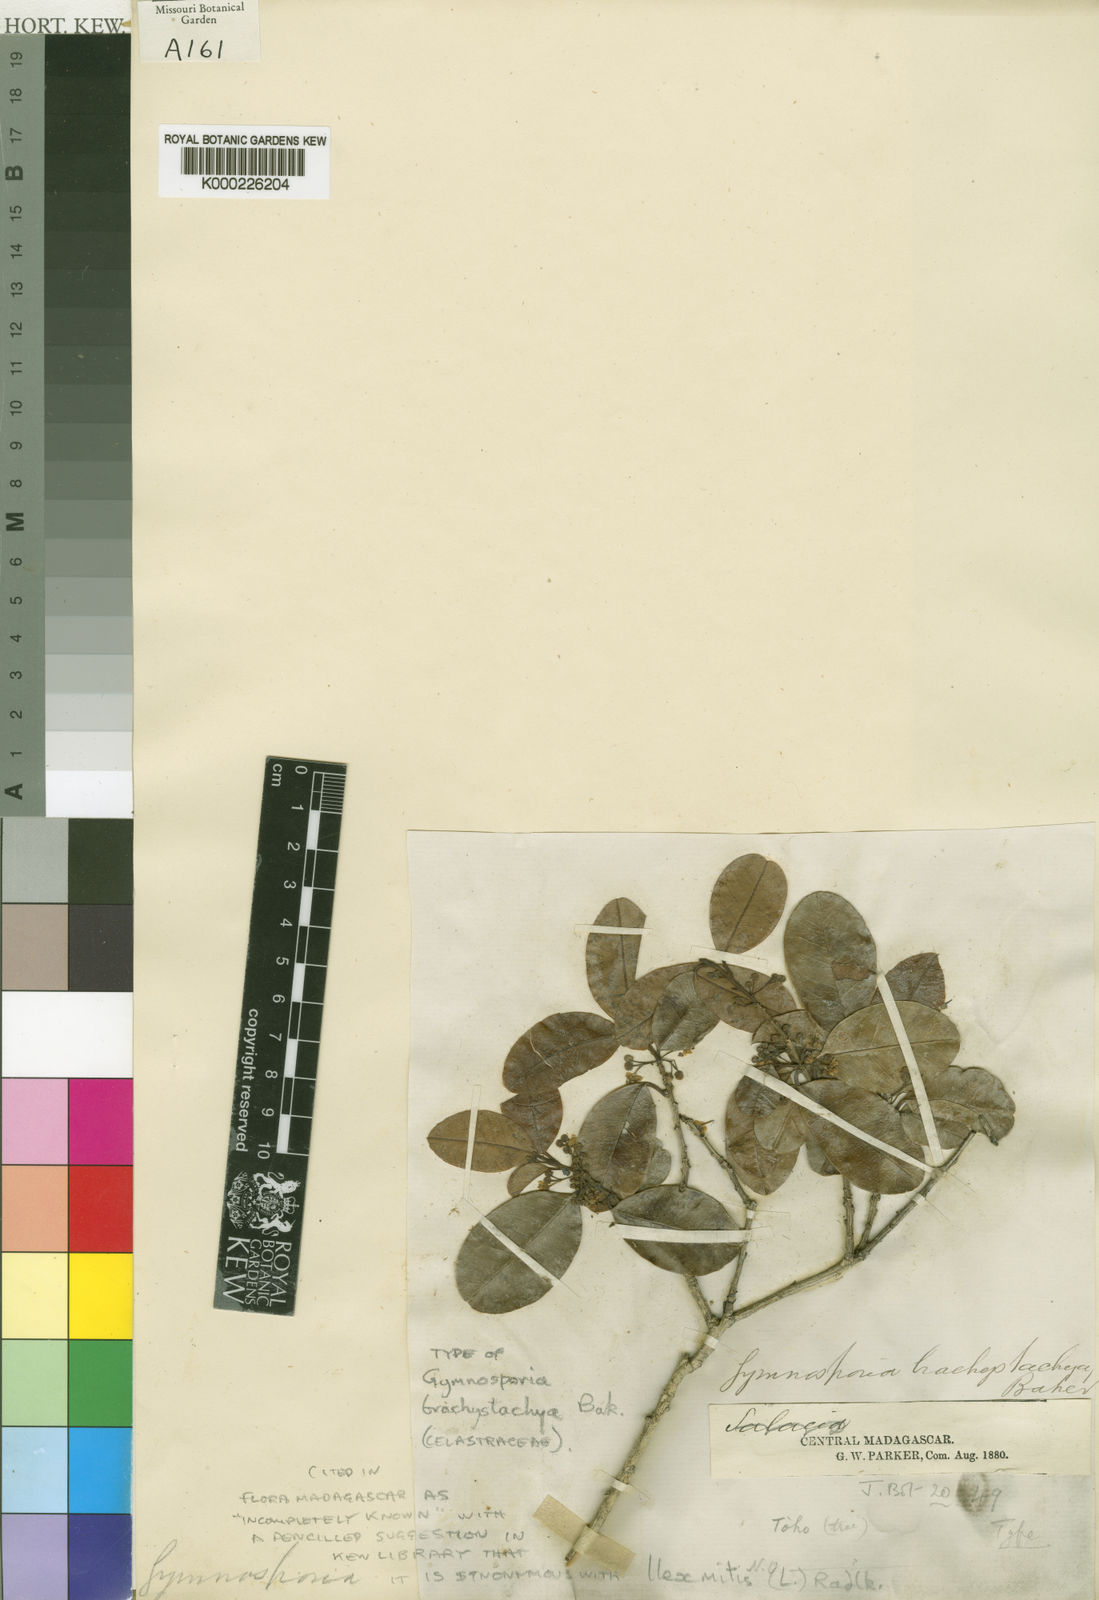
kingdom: Plantae
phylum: Tracheophyta
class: Magnoliopsida
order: Aquifoliales
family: Aquifoliaceae
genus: Ilex
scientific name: Ilex mitis
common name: African holly
